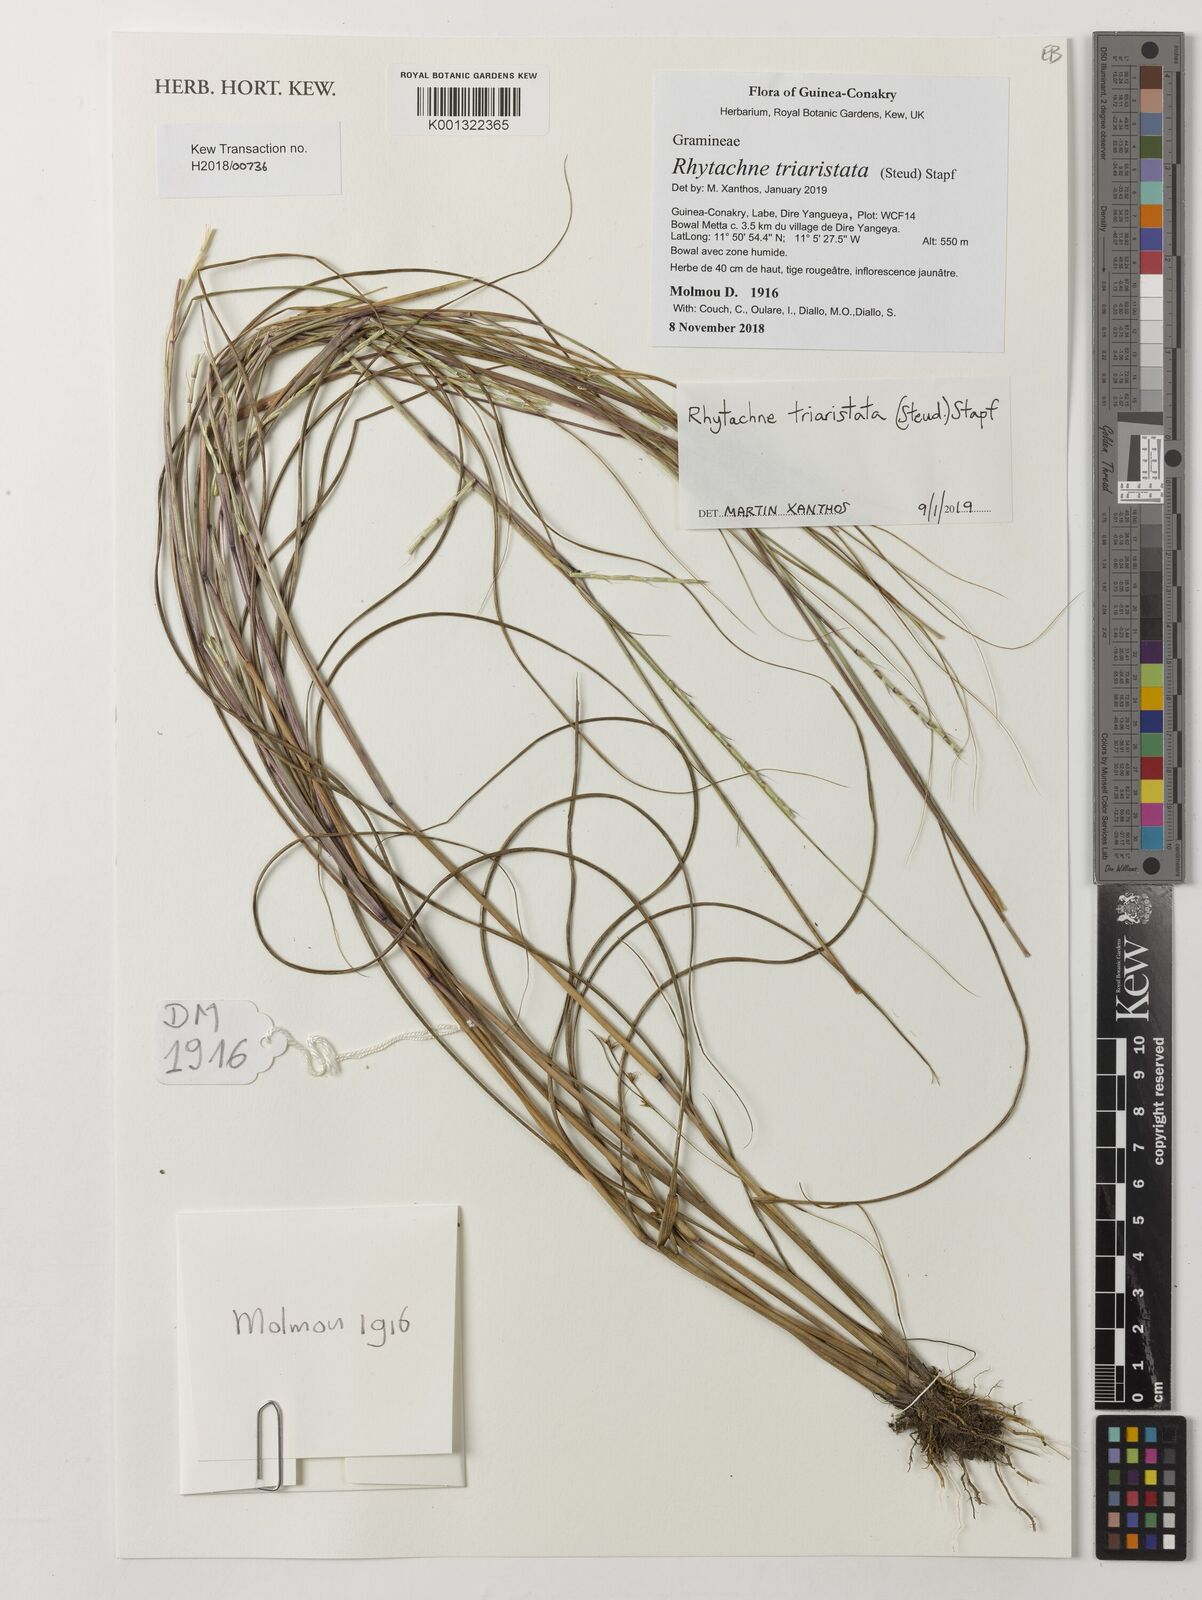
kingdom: Plantae
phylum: Tracheophyta
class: Liliopsida
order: Poales
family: Poaceae
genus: Rhytachne
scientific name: Rhytachne triaristata
